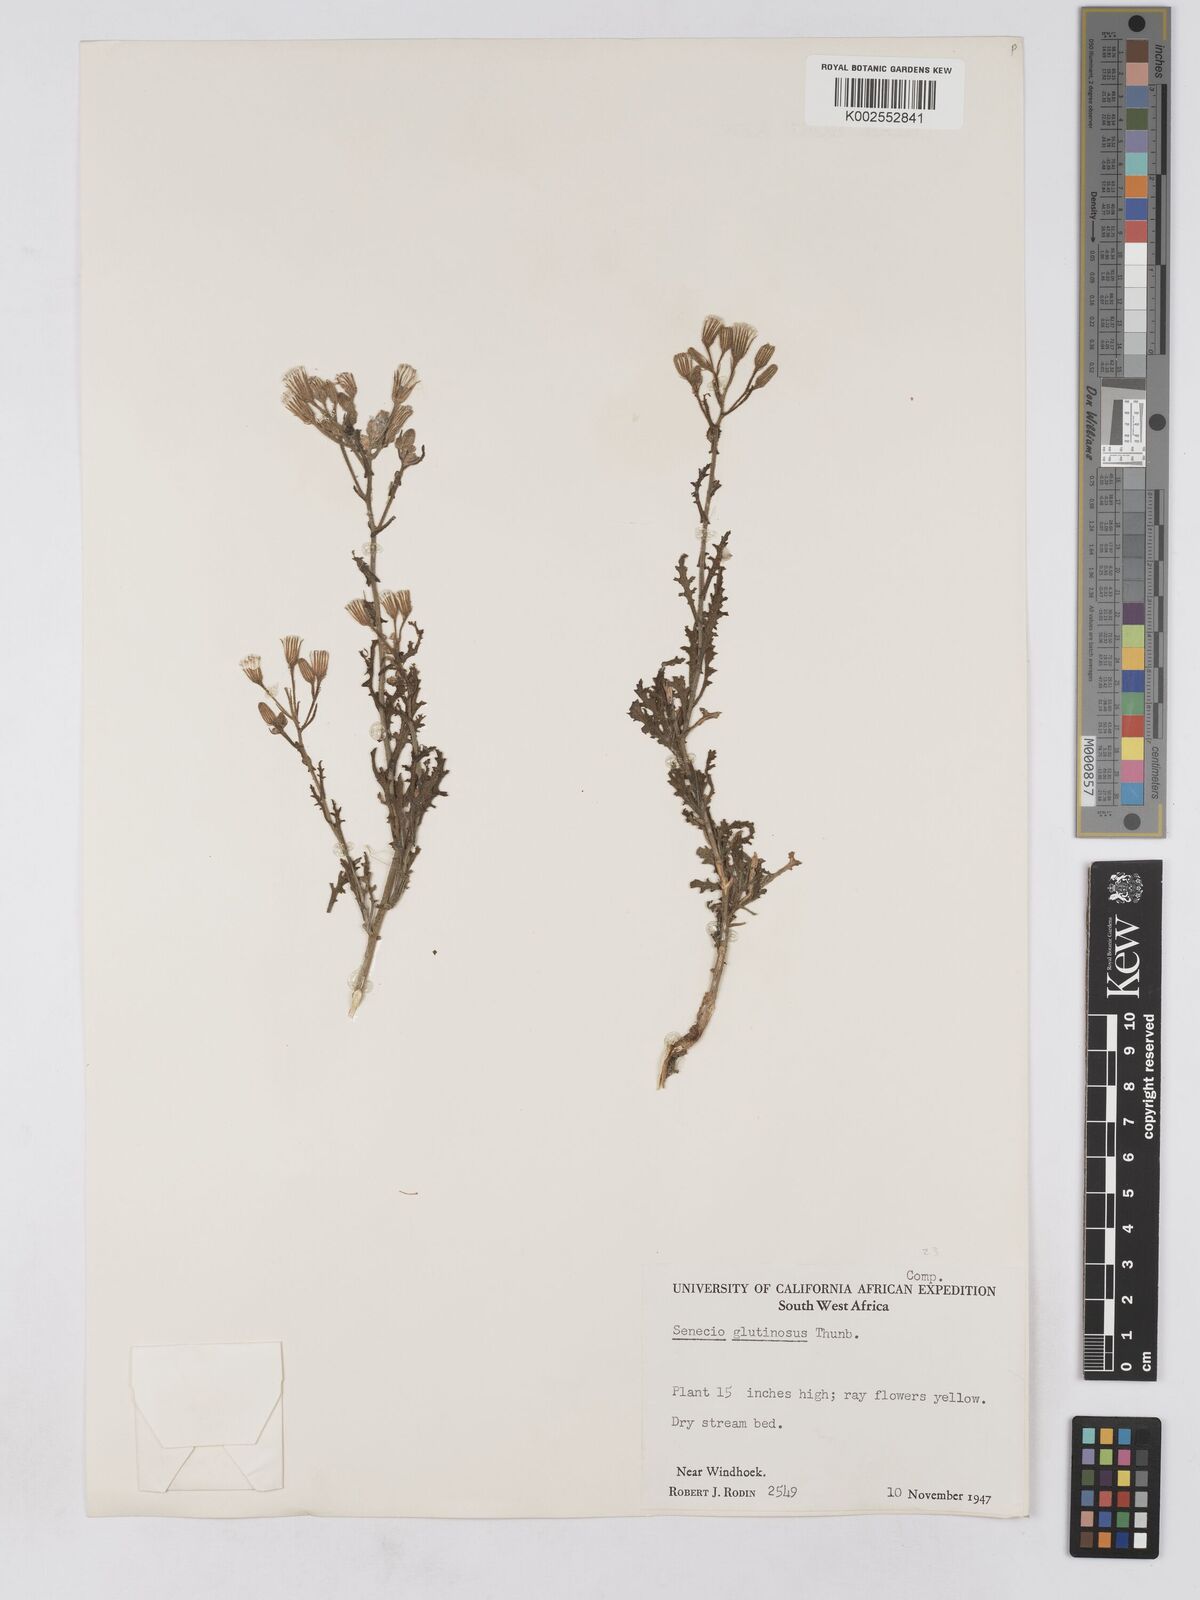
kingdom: Plantae
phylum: Tracheophyta
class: Magnoliopsida
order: Asterales
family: Asteraceae
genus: Senecio
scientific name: Senecio consanguineus
